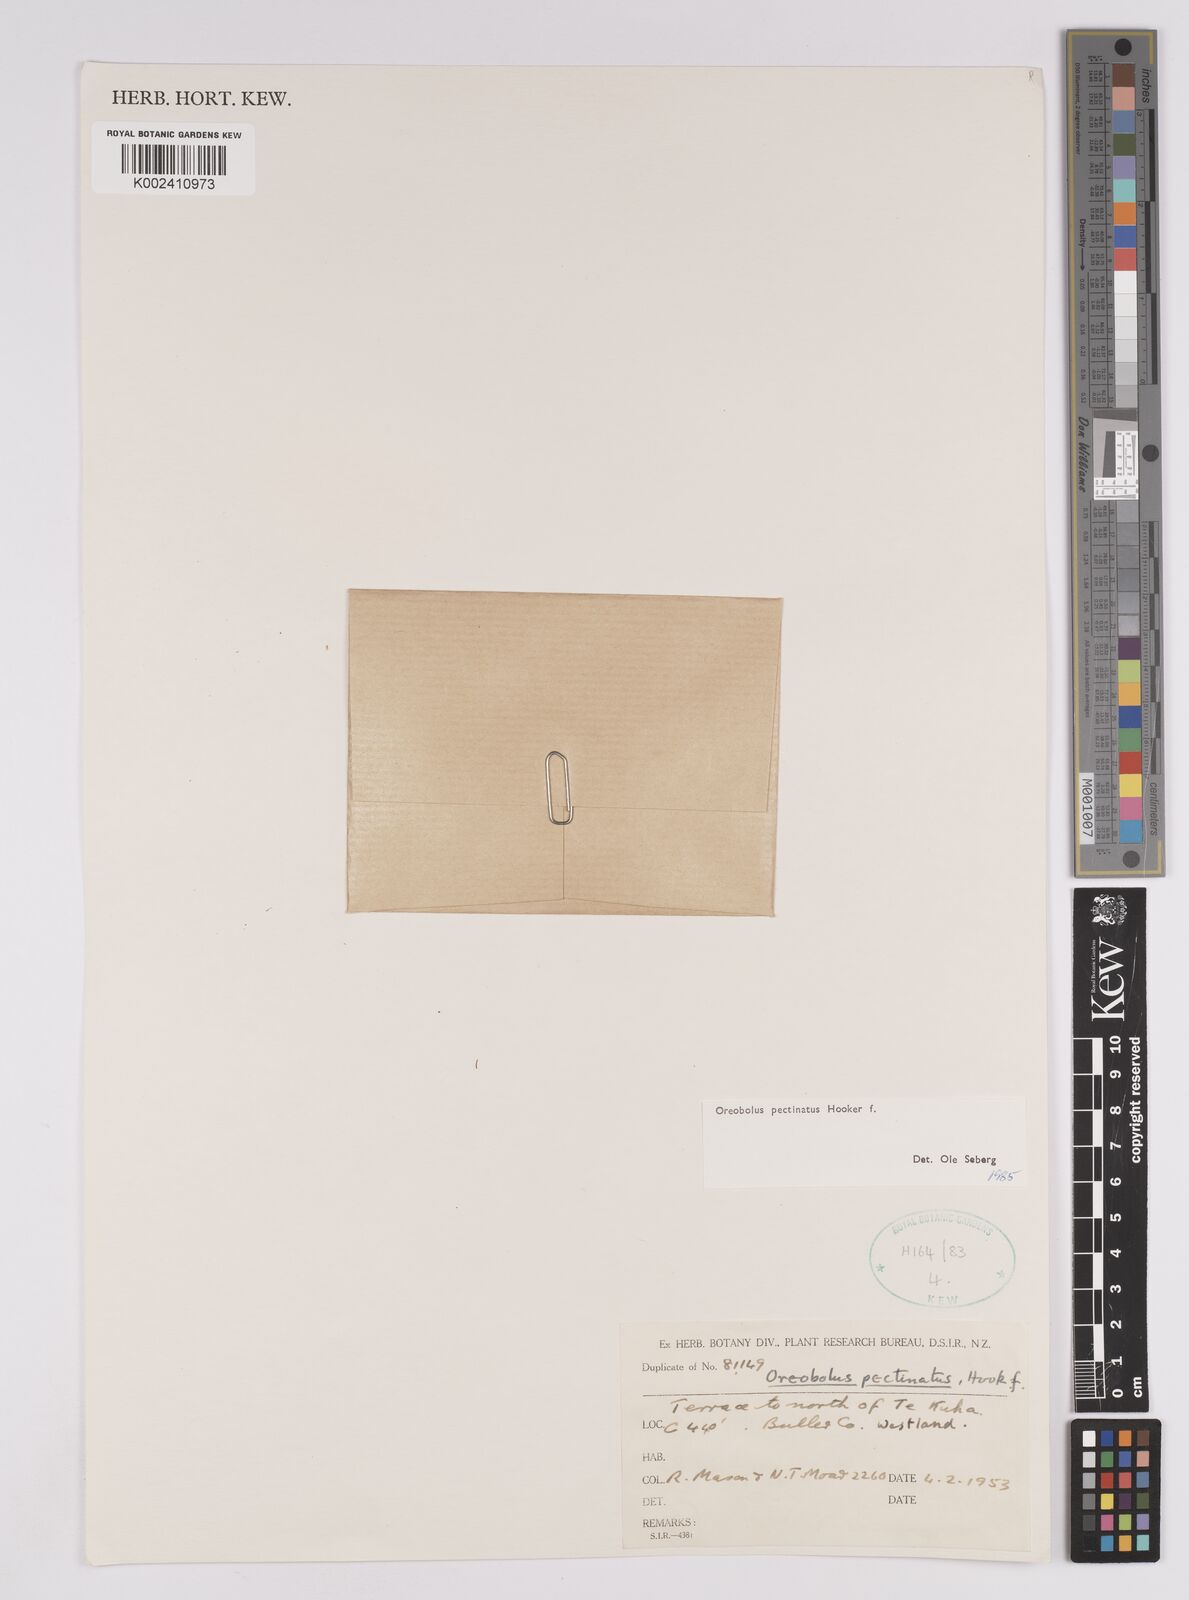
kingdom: Plantae
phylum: Tracheophyta
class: Liliopsida
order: Poales
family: Cyperaceae
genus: Oreobolus
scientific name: Oreobolus pectinatus
